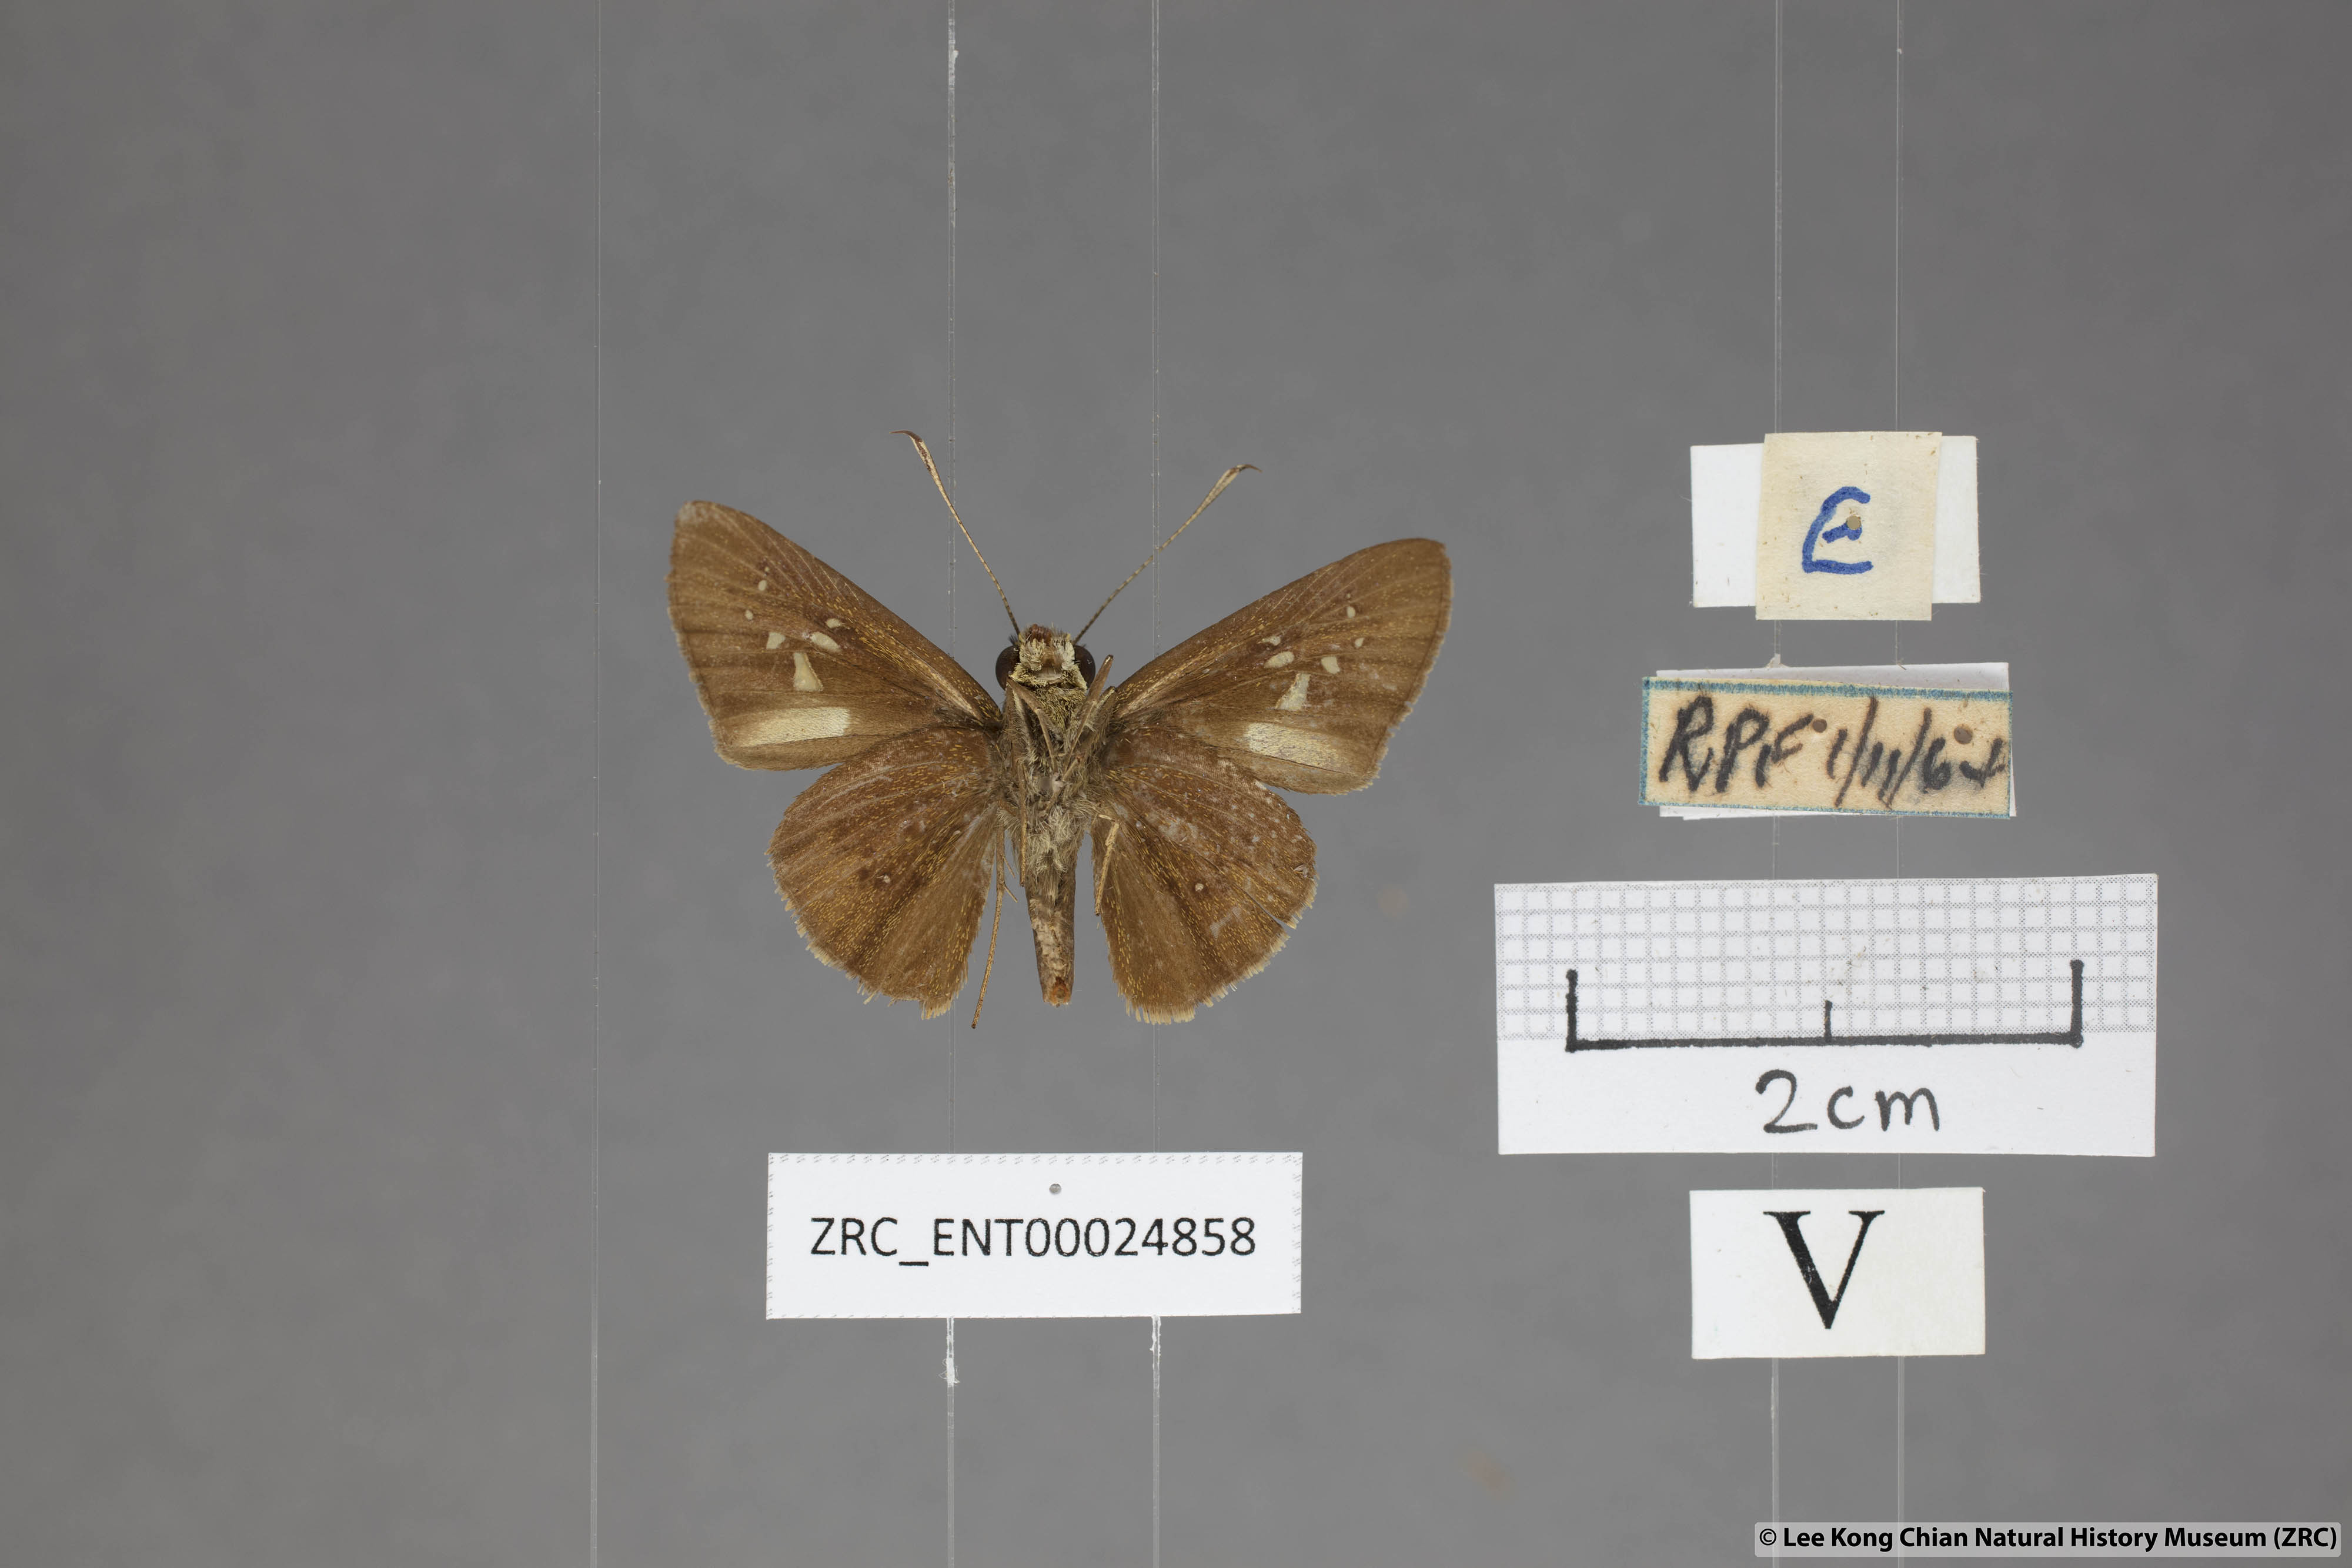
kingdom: Animalia
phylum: Arthropoda
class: Insecta
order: Lepidoptera
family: Hesperiidae
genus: Isma
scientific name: Isma miosticta
